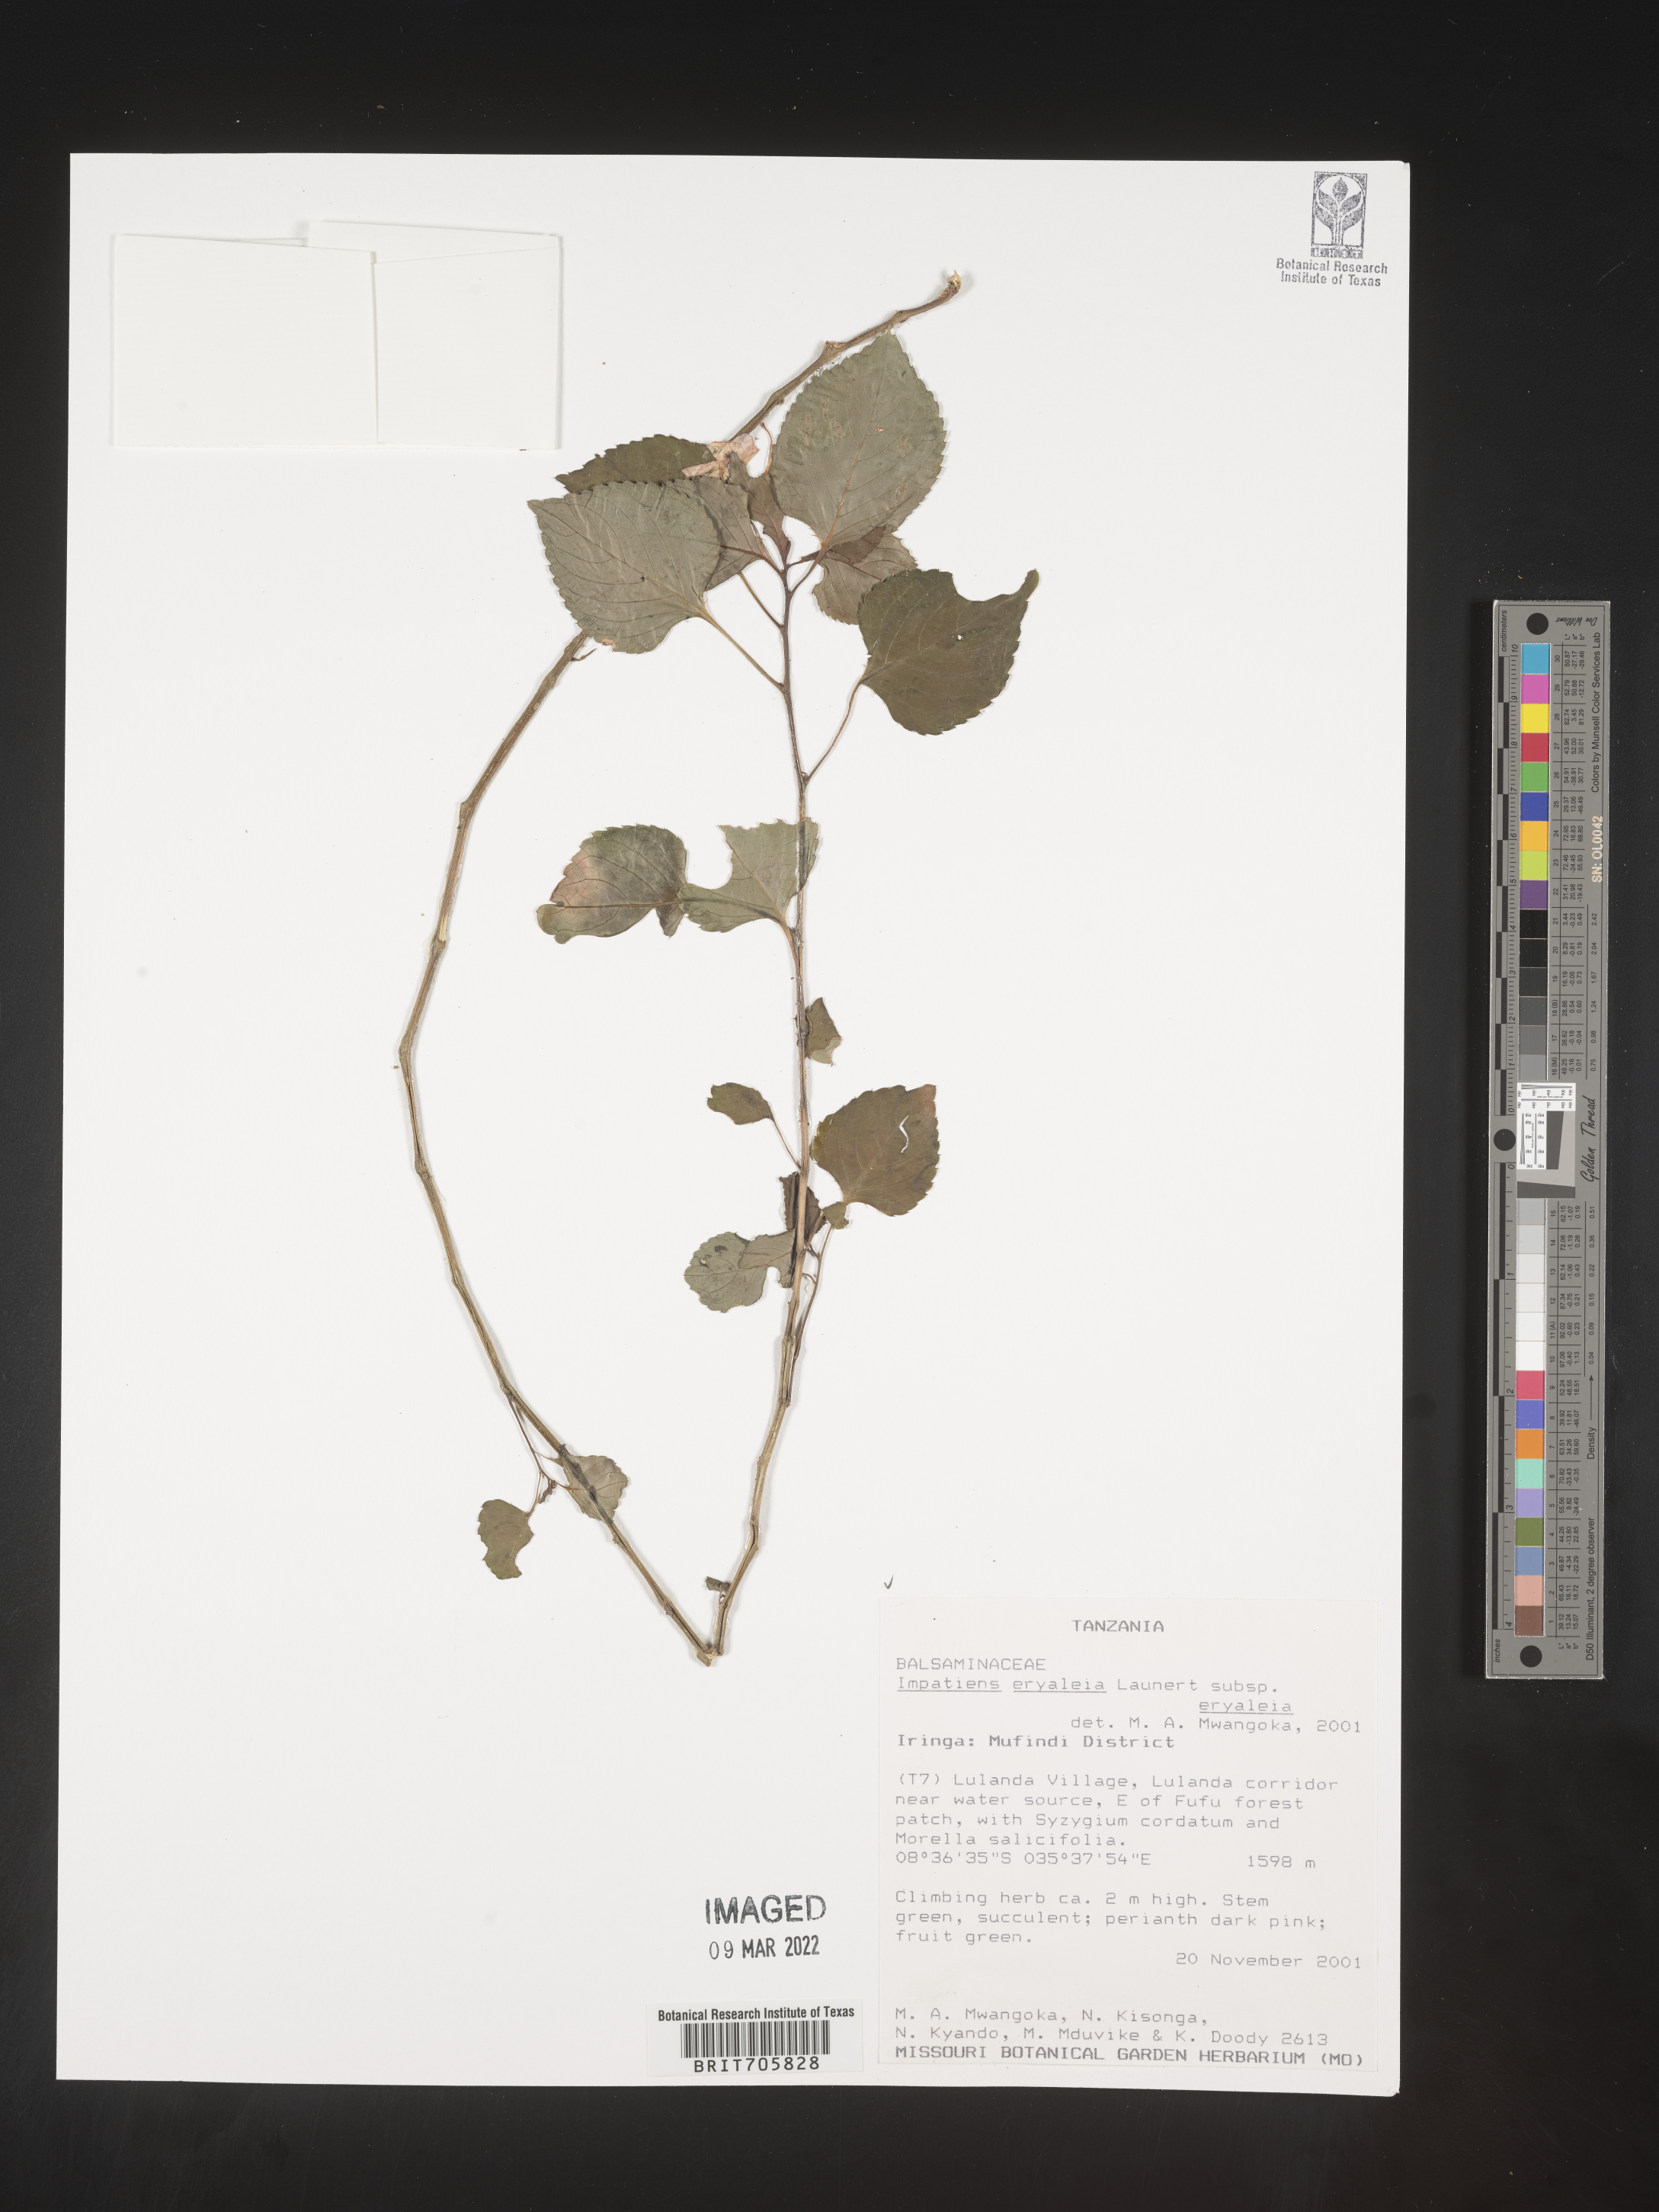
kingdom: Plantae
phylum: Tracheophyta
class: Magnoliopsida
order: Ericales
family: Balsaminaceae
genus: Impatiens
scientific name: Impatiens
